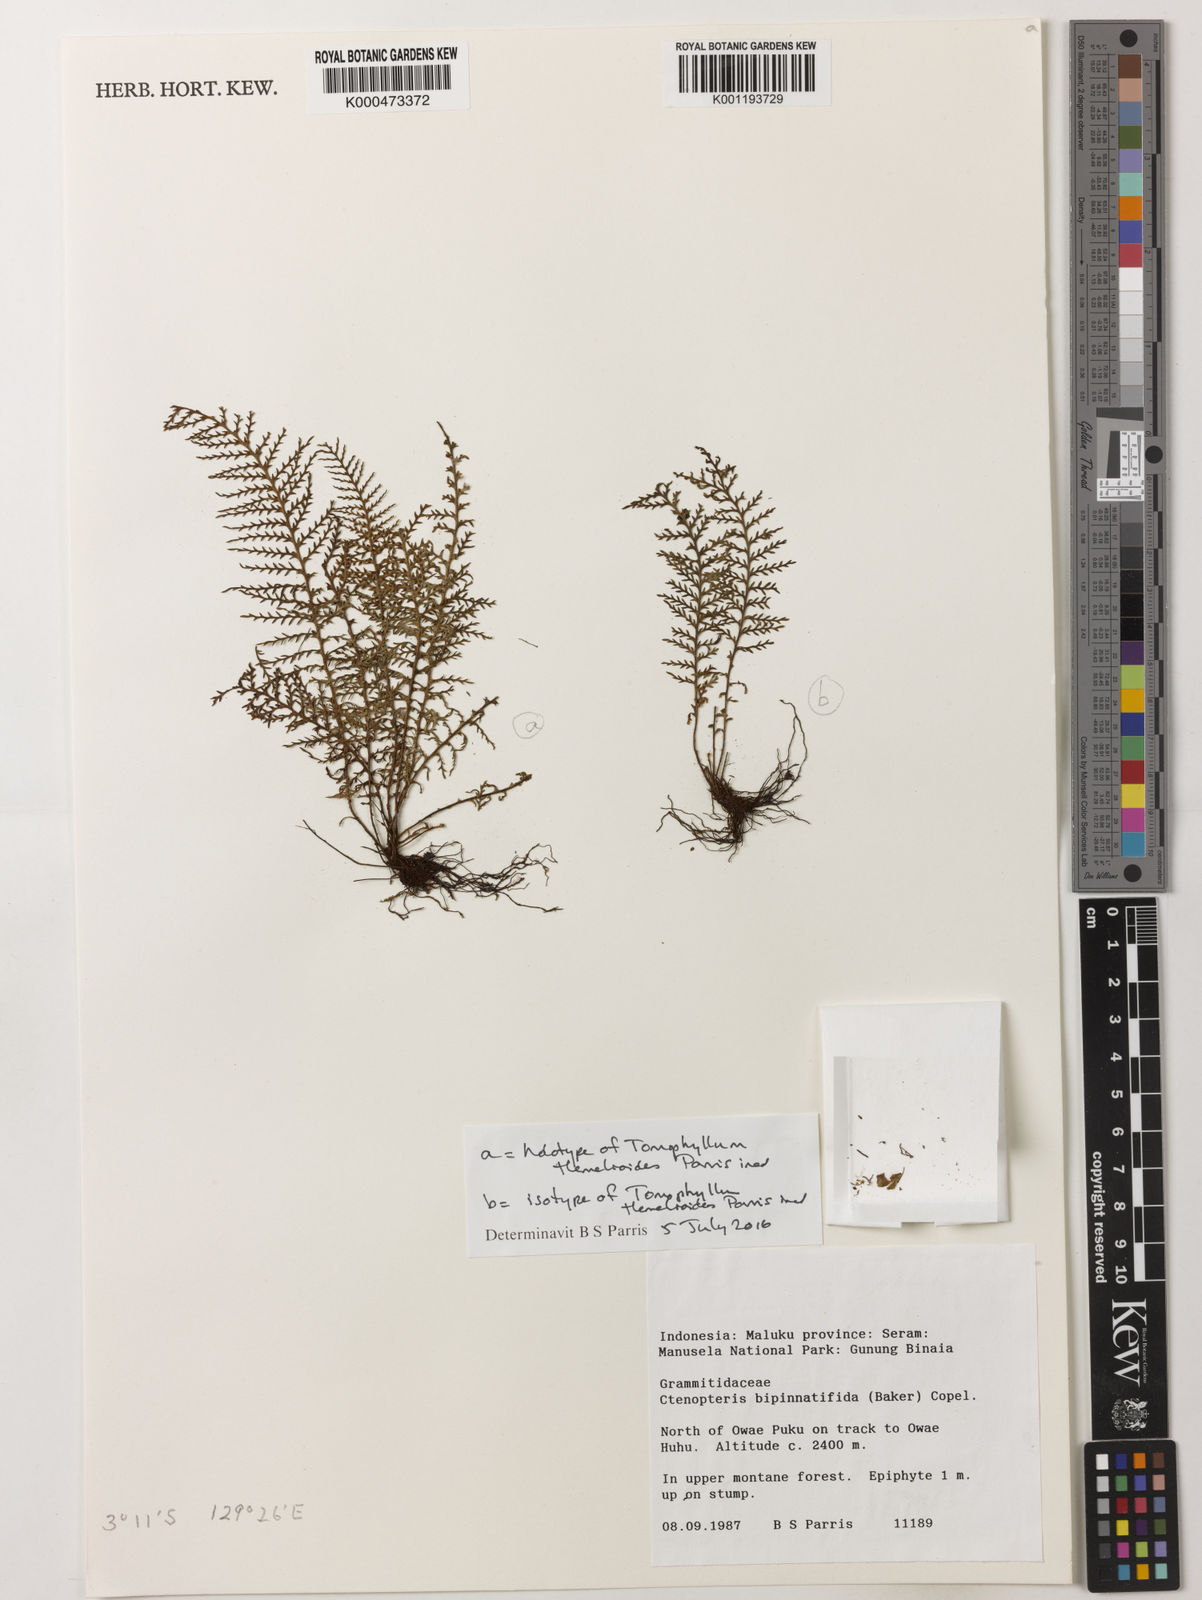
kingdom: Plantae
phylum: Tracheophyta
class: Polypodiopsida
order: Polypodiales
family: Polypodiaceae
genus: Dasygrammitis
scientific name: Dasygrammitis malaccana
